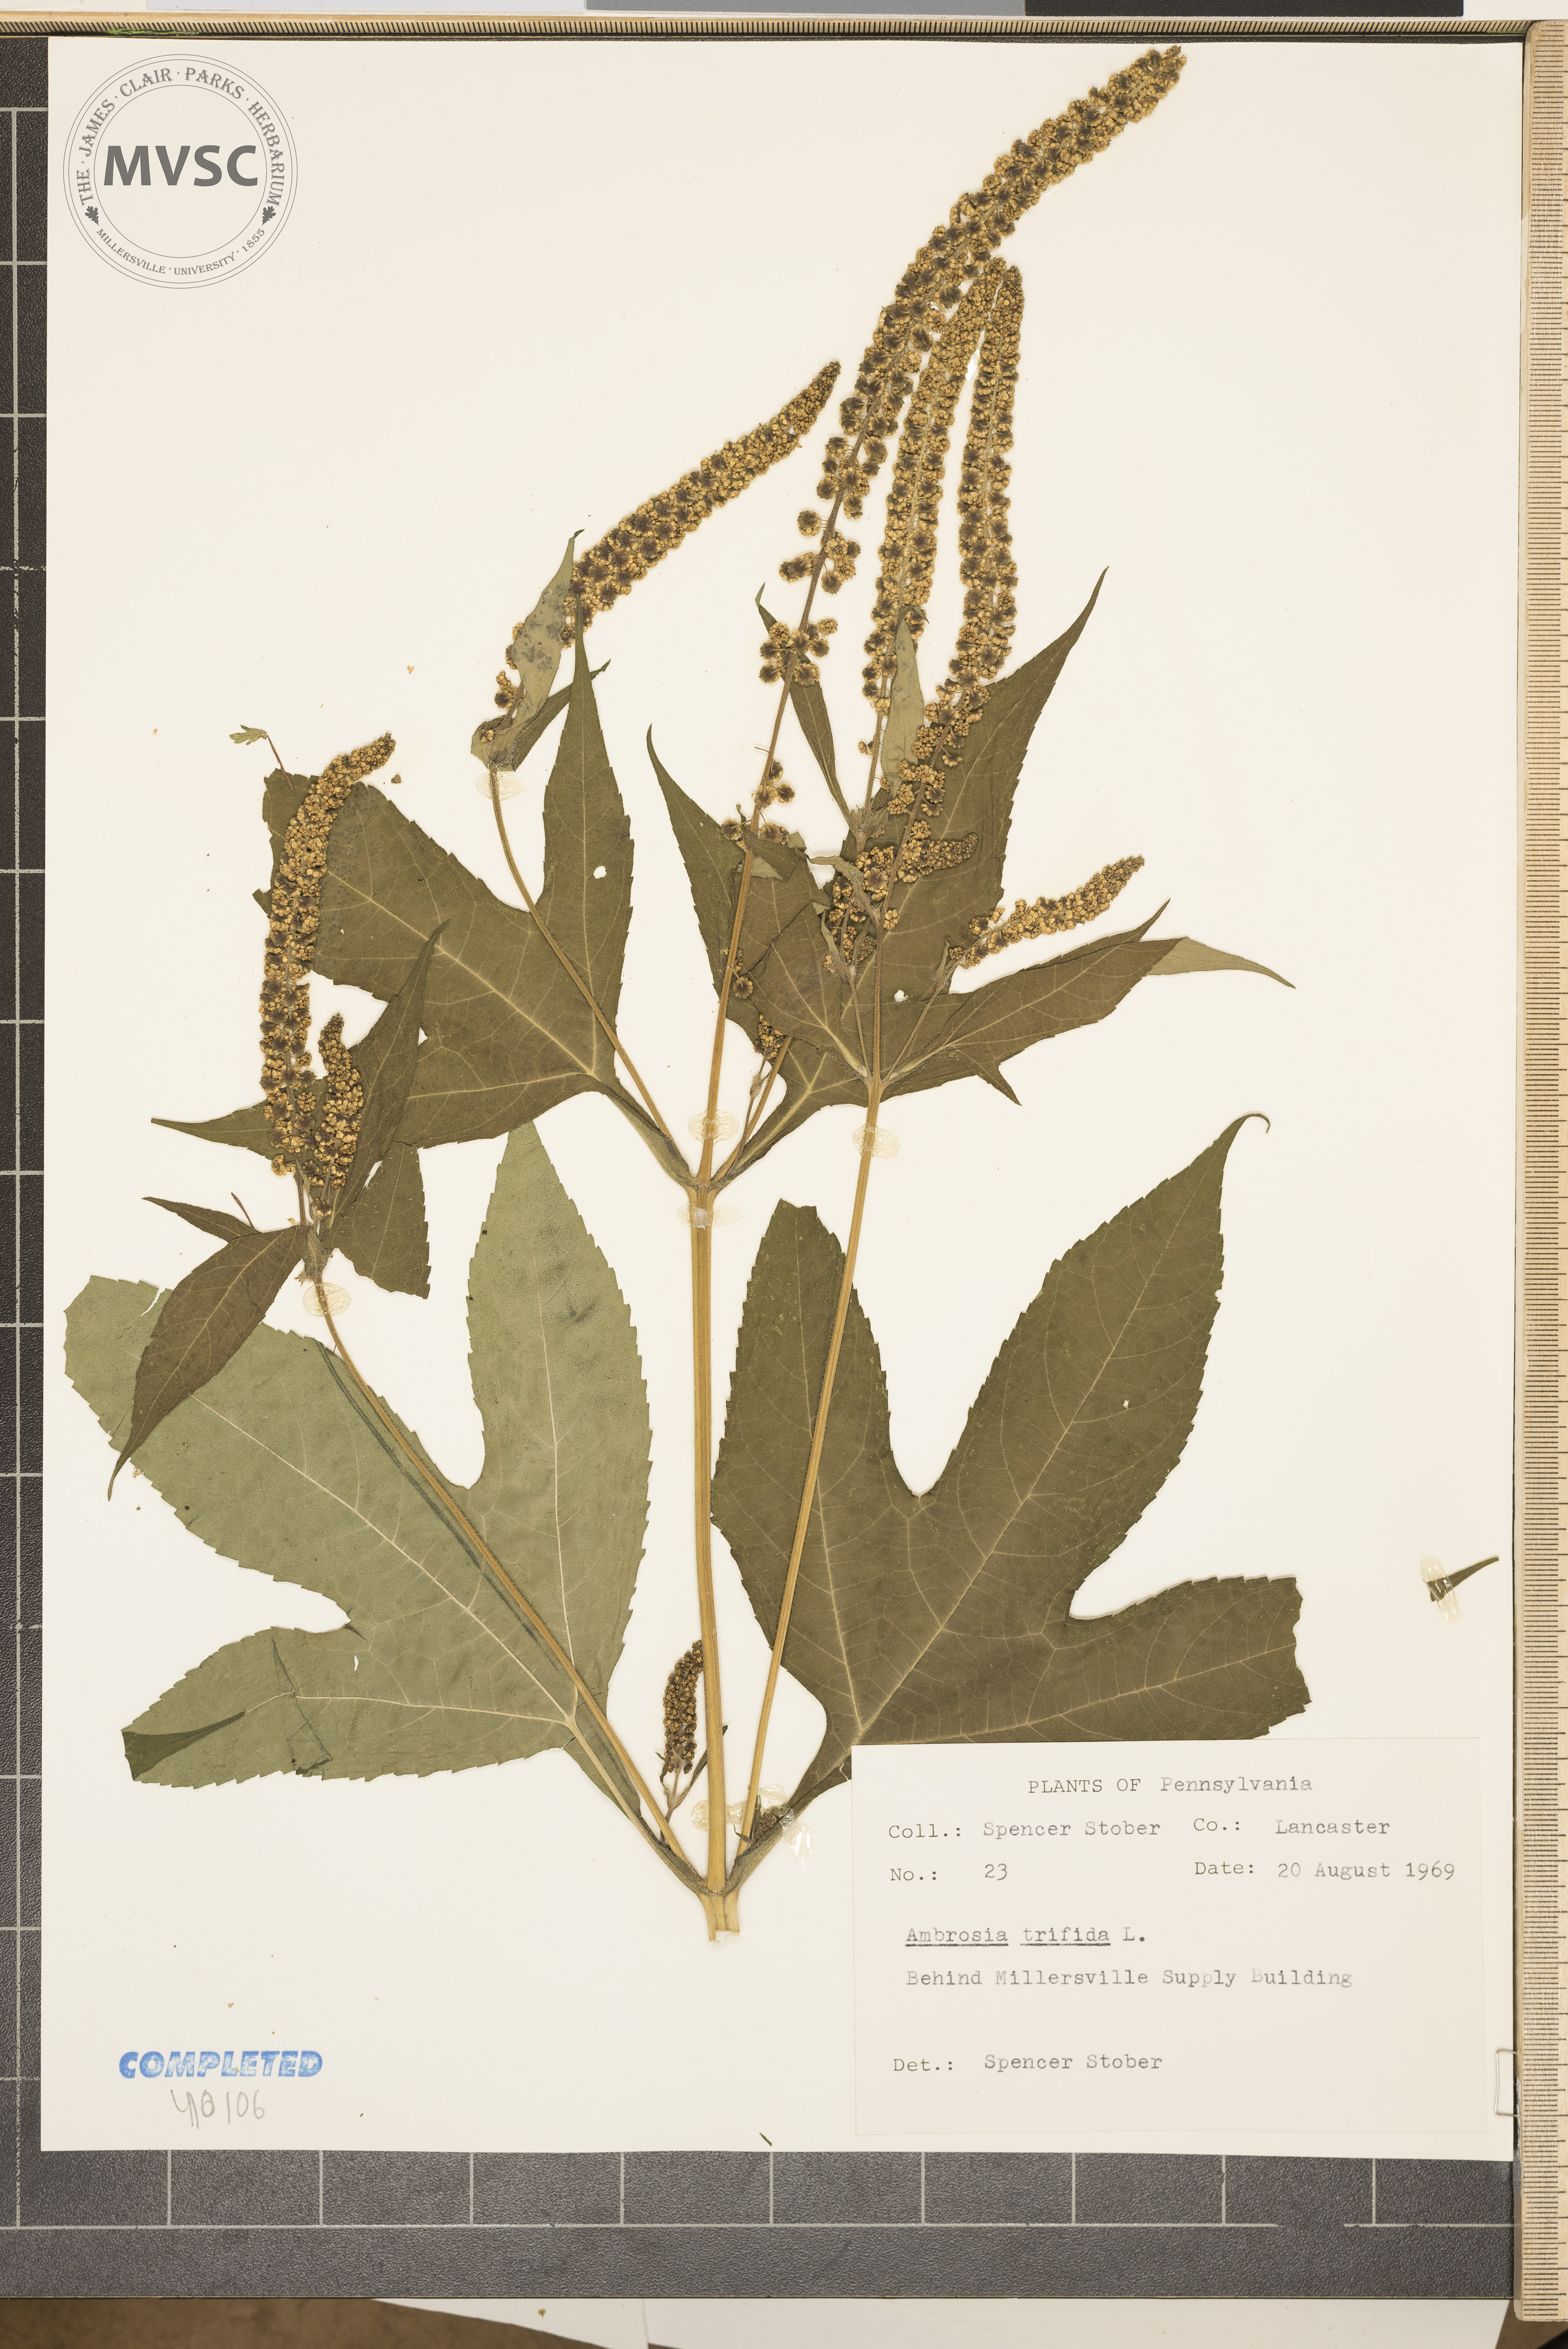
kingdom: Plantae
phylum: Tracheophyta
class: Magnoliopsida
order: Asterales
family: Asteraceae
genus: Ambrosia
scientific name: Ambrosia trifida
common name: Giant ragweed
